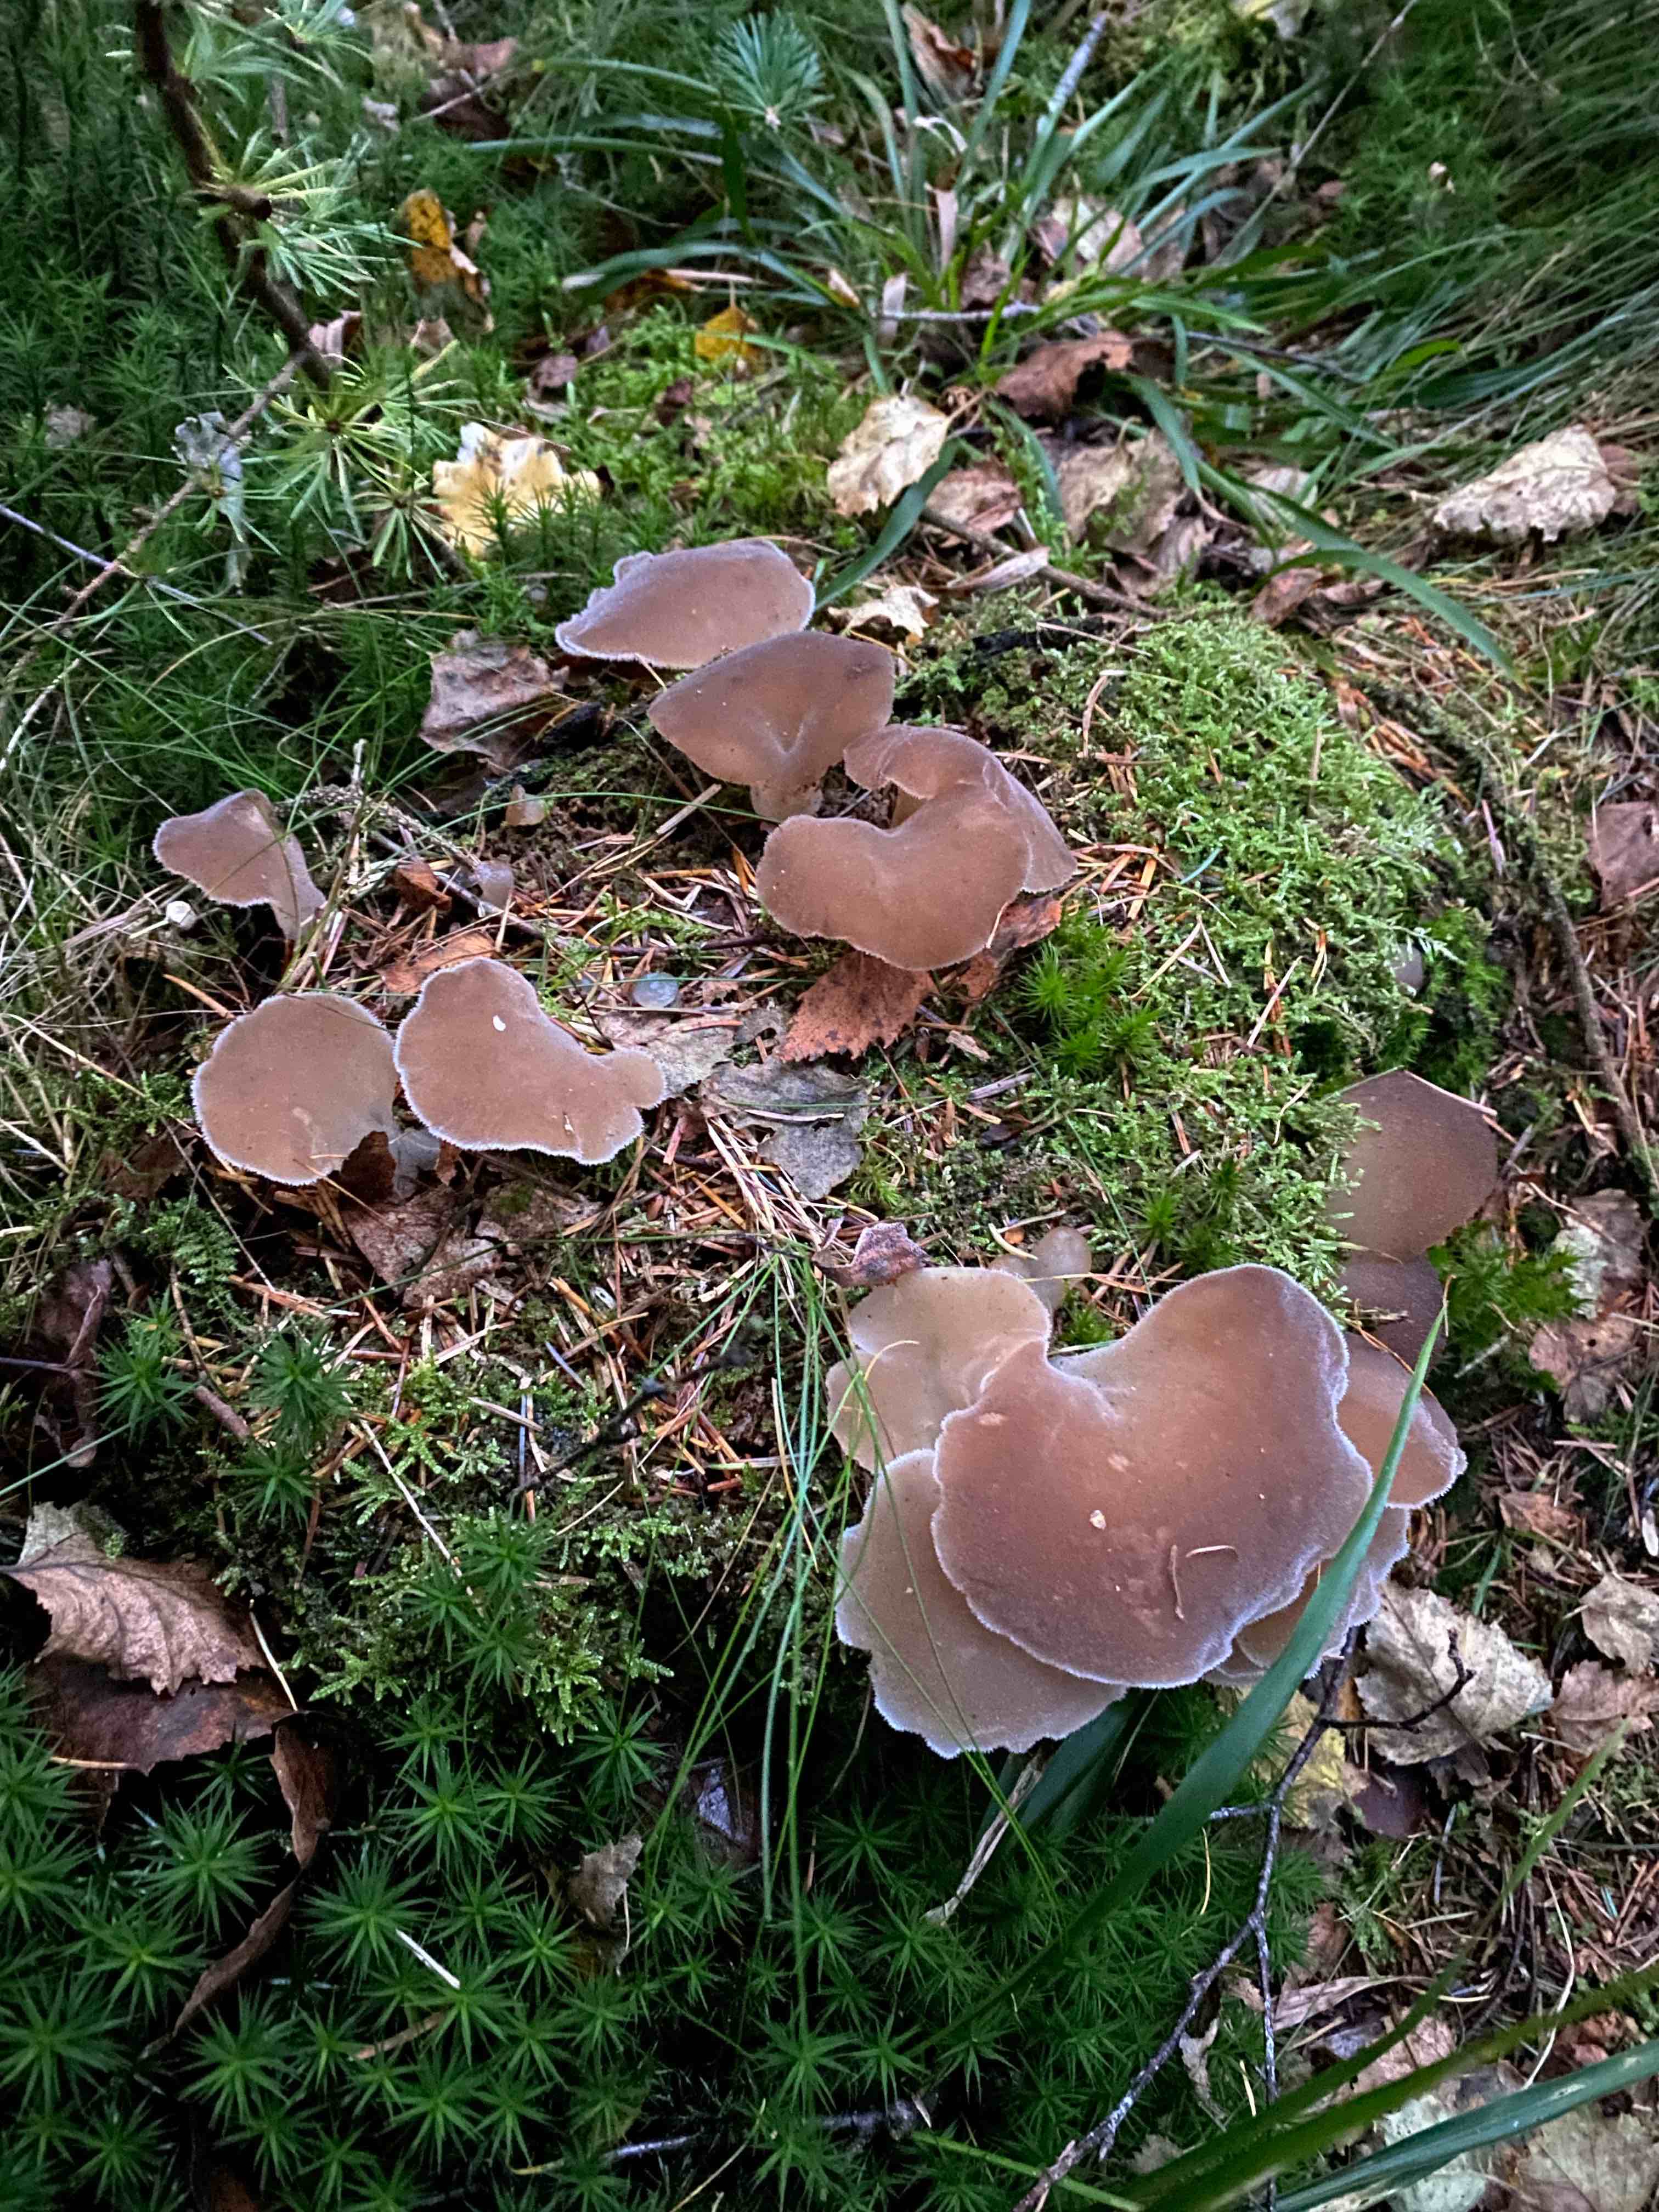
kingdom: Fungi
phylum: Basidiomycota
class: Agaricomycetes
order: Auriculariales
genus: Pseudohydnum
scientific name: Pseudohydnum gelatinosum
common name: bævretand
